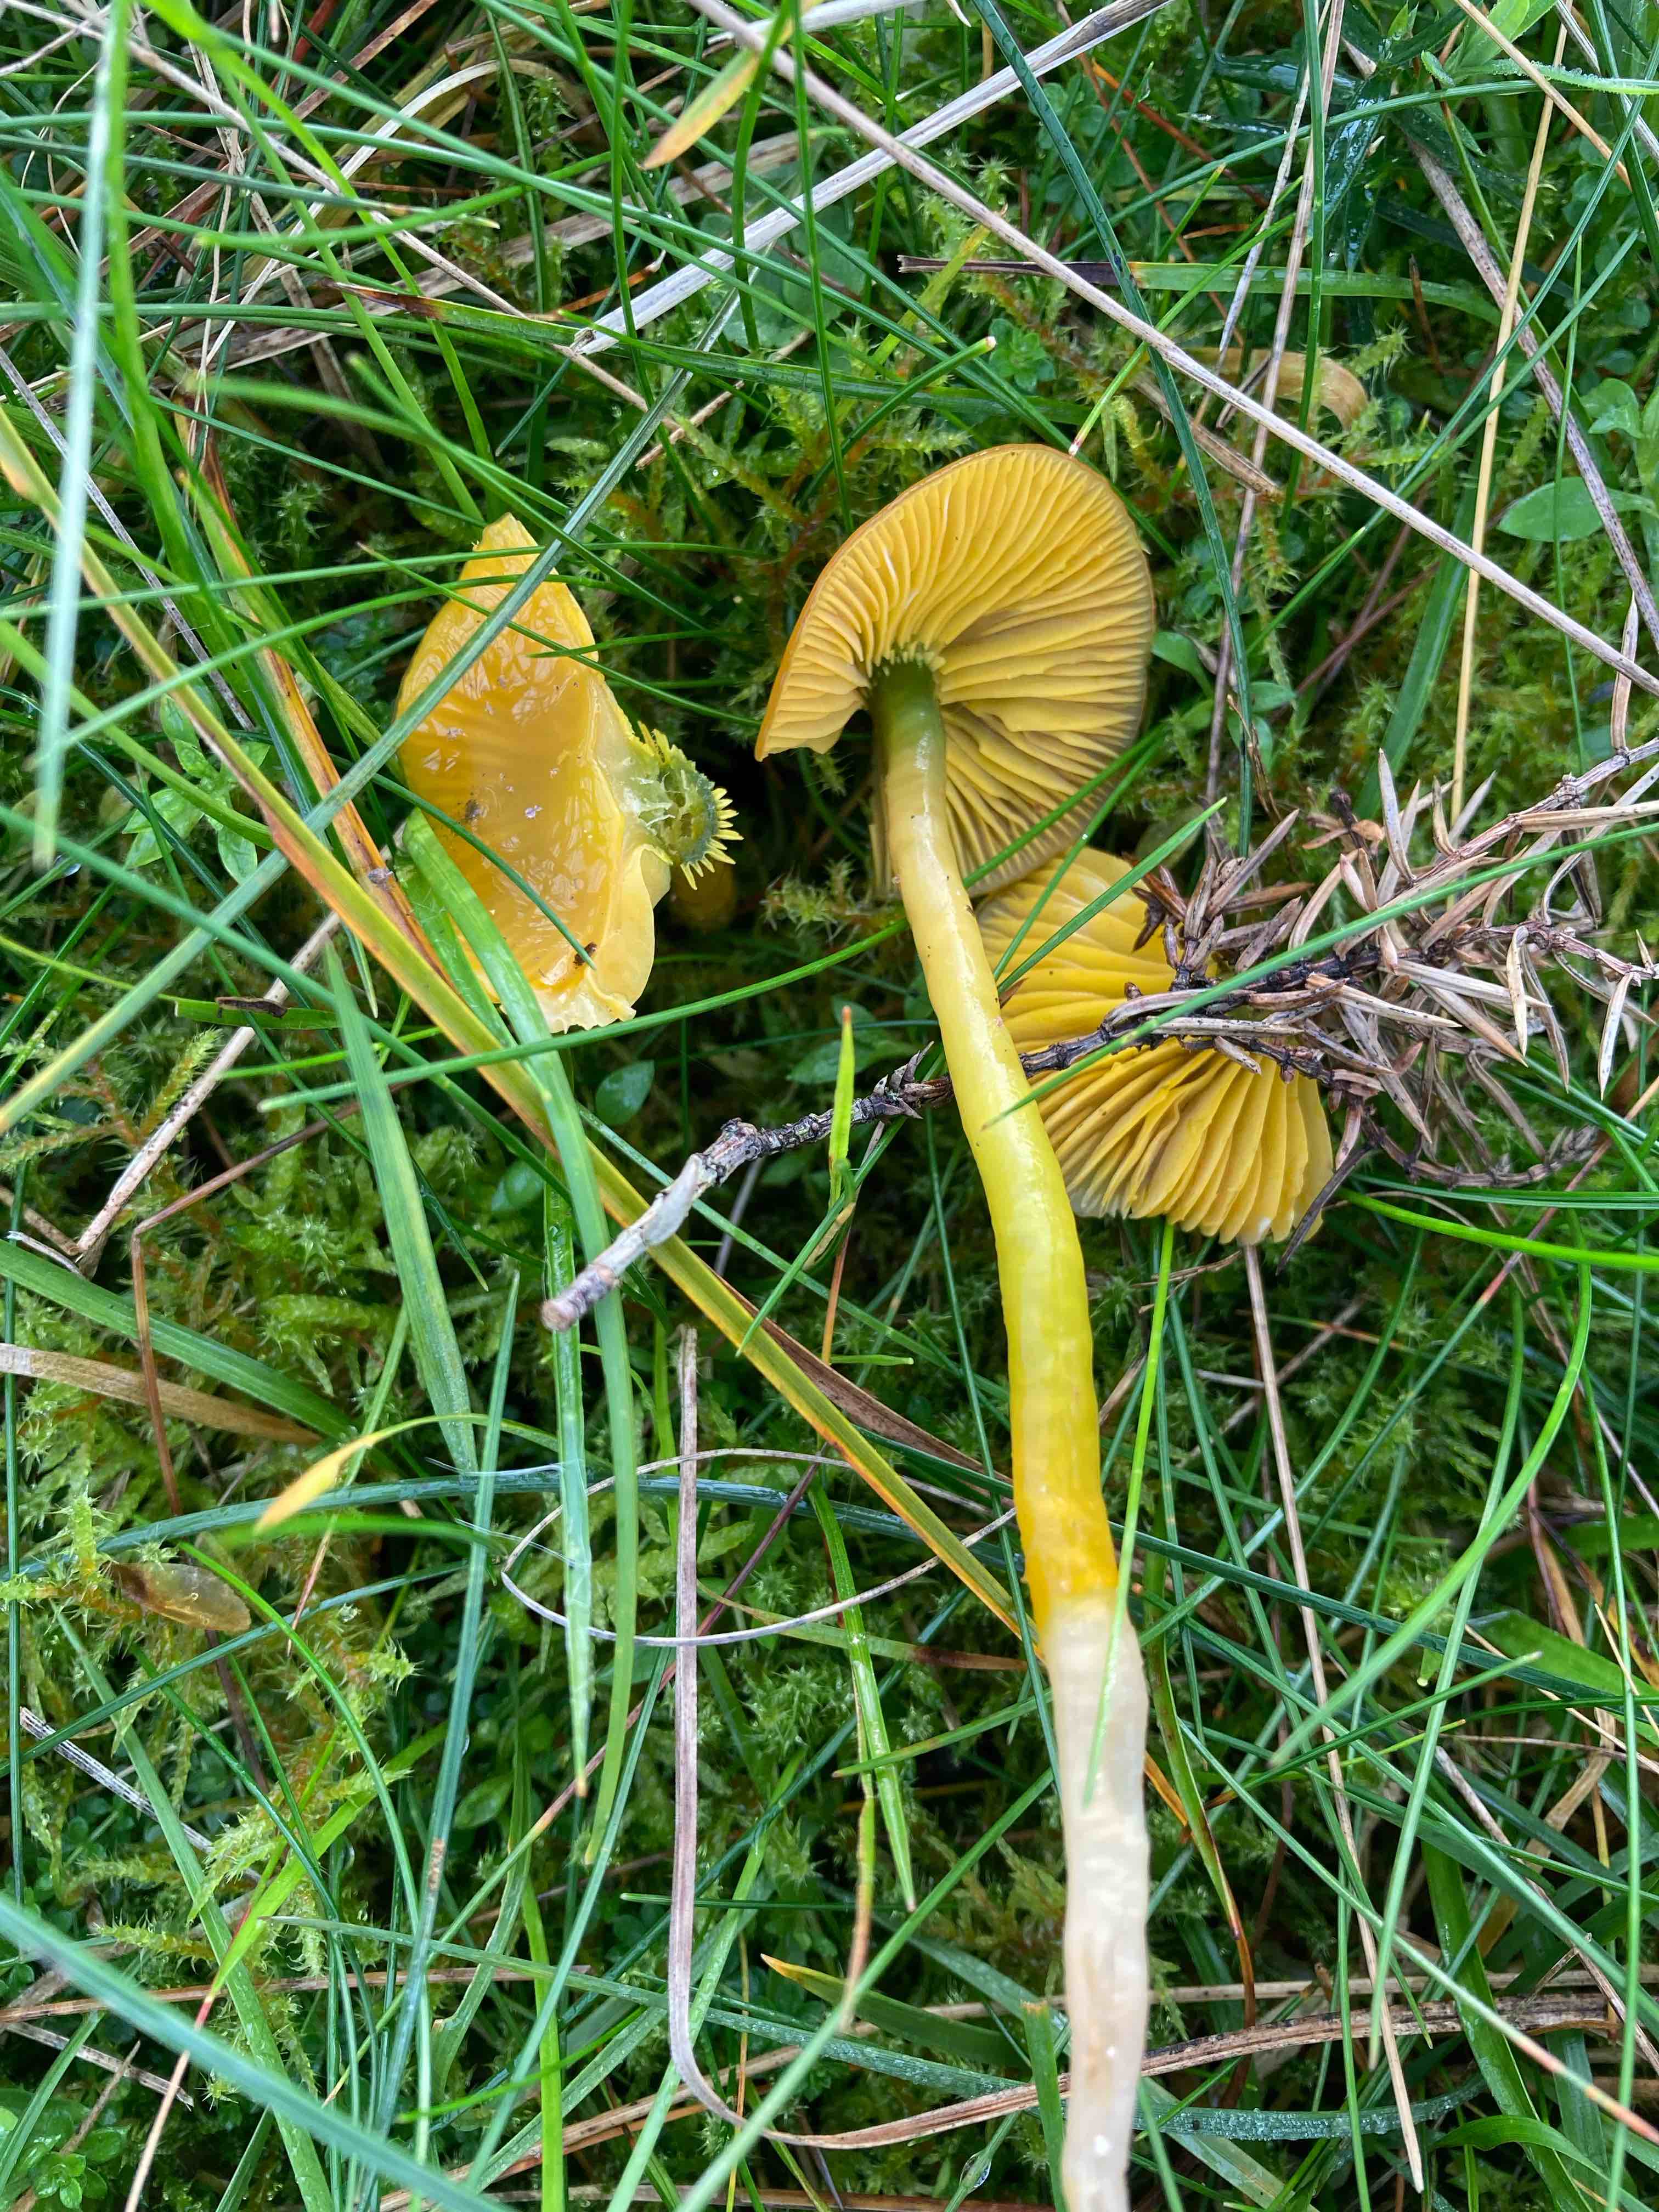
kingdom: Fungi
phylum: Basidiomycota
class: Agaricomycetes
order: Agaricales
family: Hygrophoraceae
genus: Gliophorus
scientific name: Gliophorus psittacinus
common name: papegøje-vokshat
